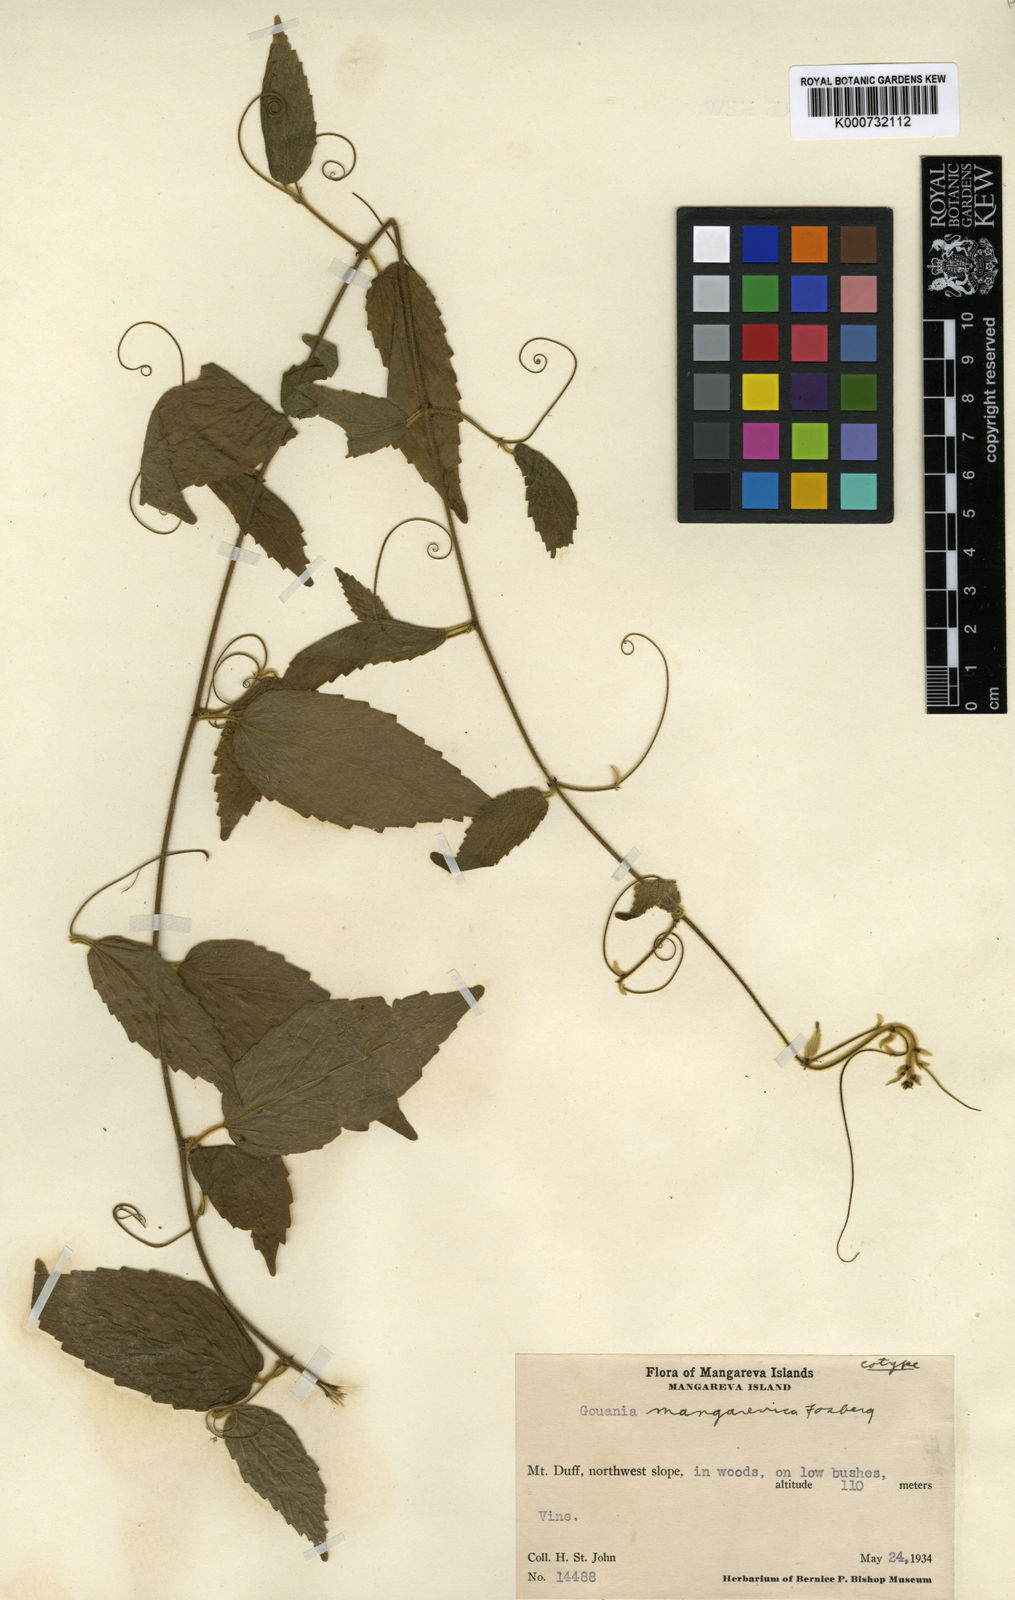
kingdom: Plantae
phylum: Tracheophyta
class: Magnoliopsida
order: Rosales
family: Rhamnaceae
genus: Gouania
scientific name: Gouania mangarevica
